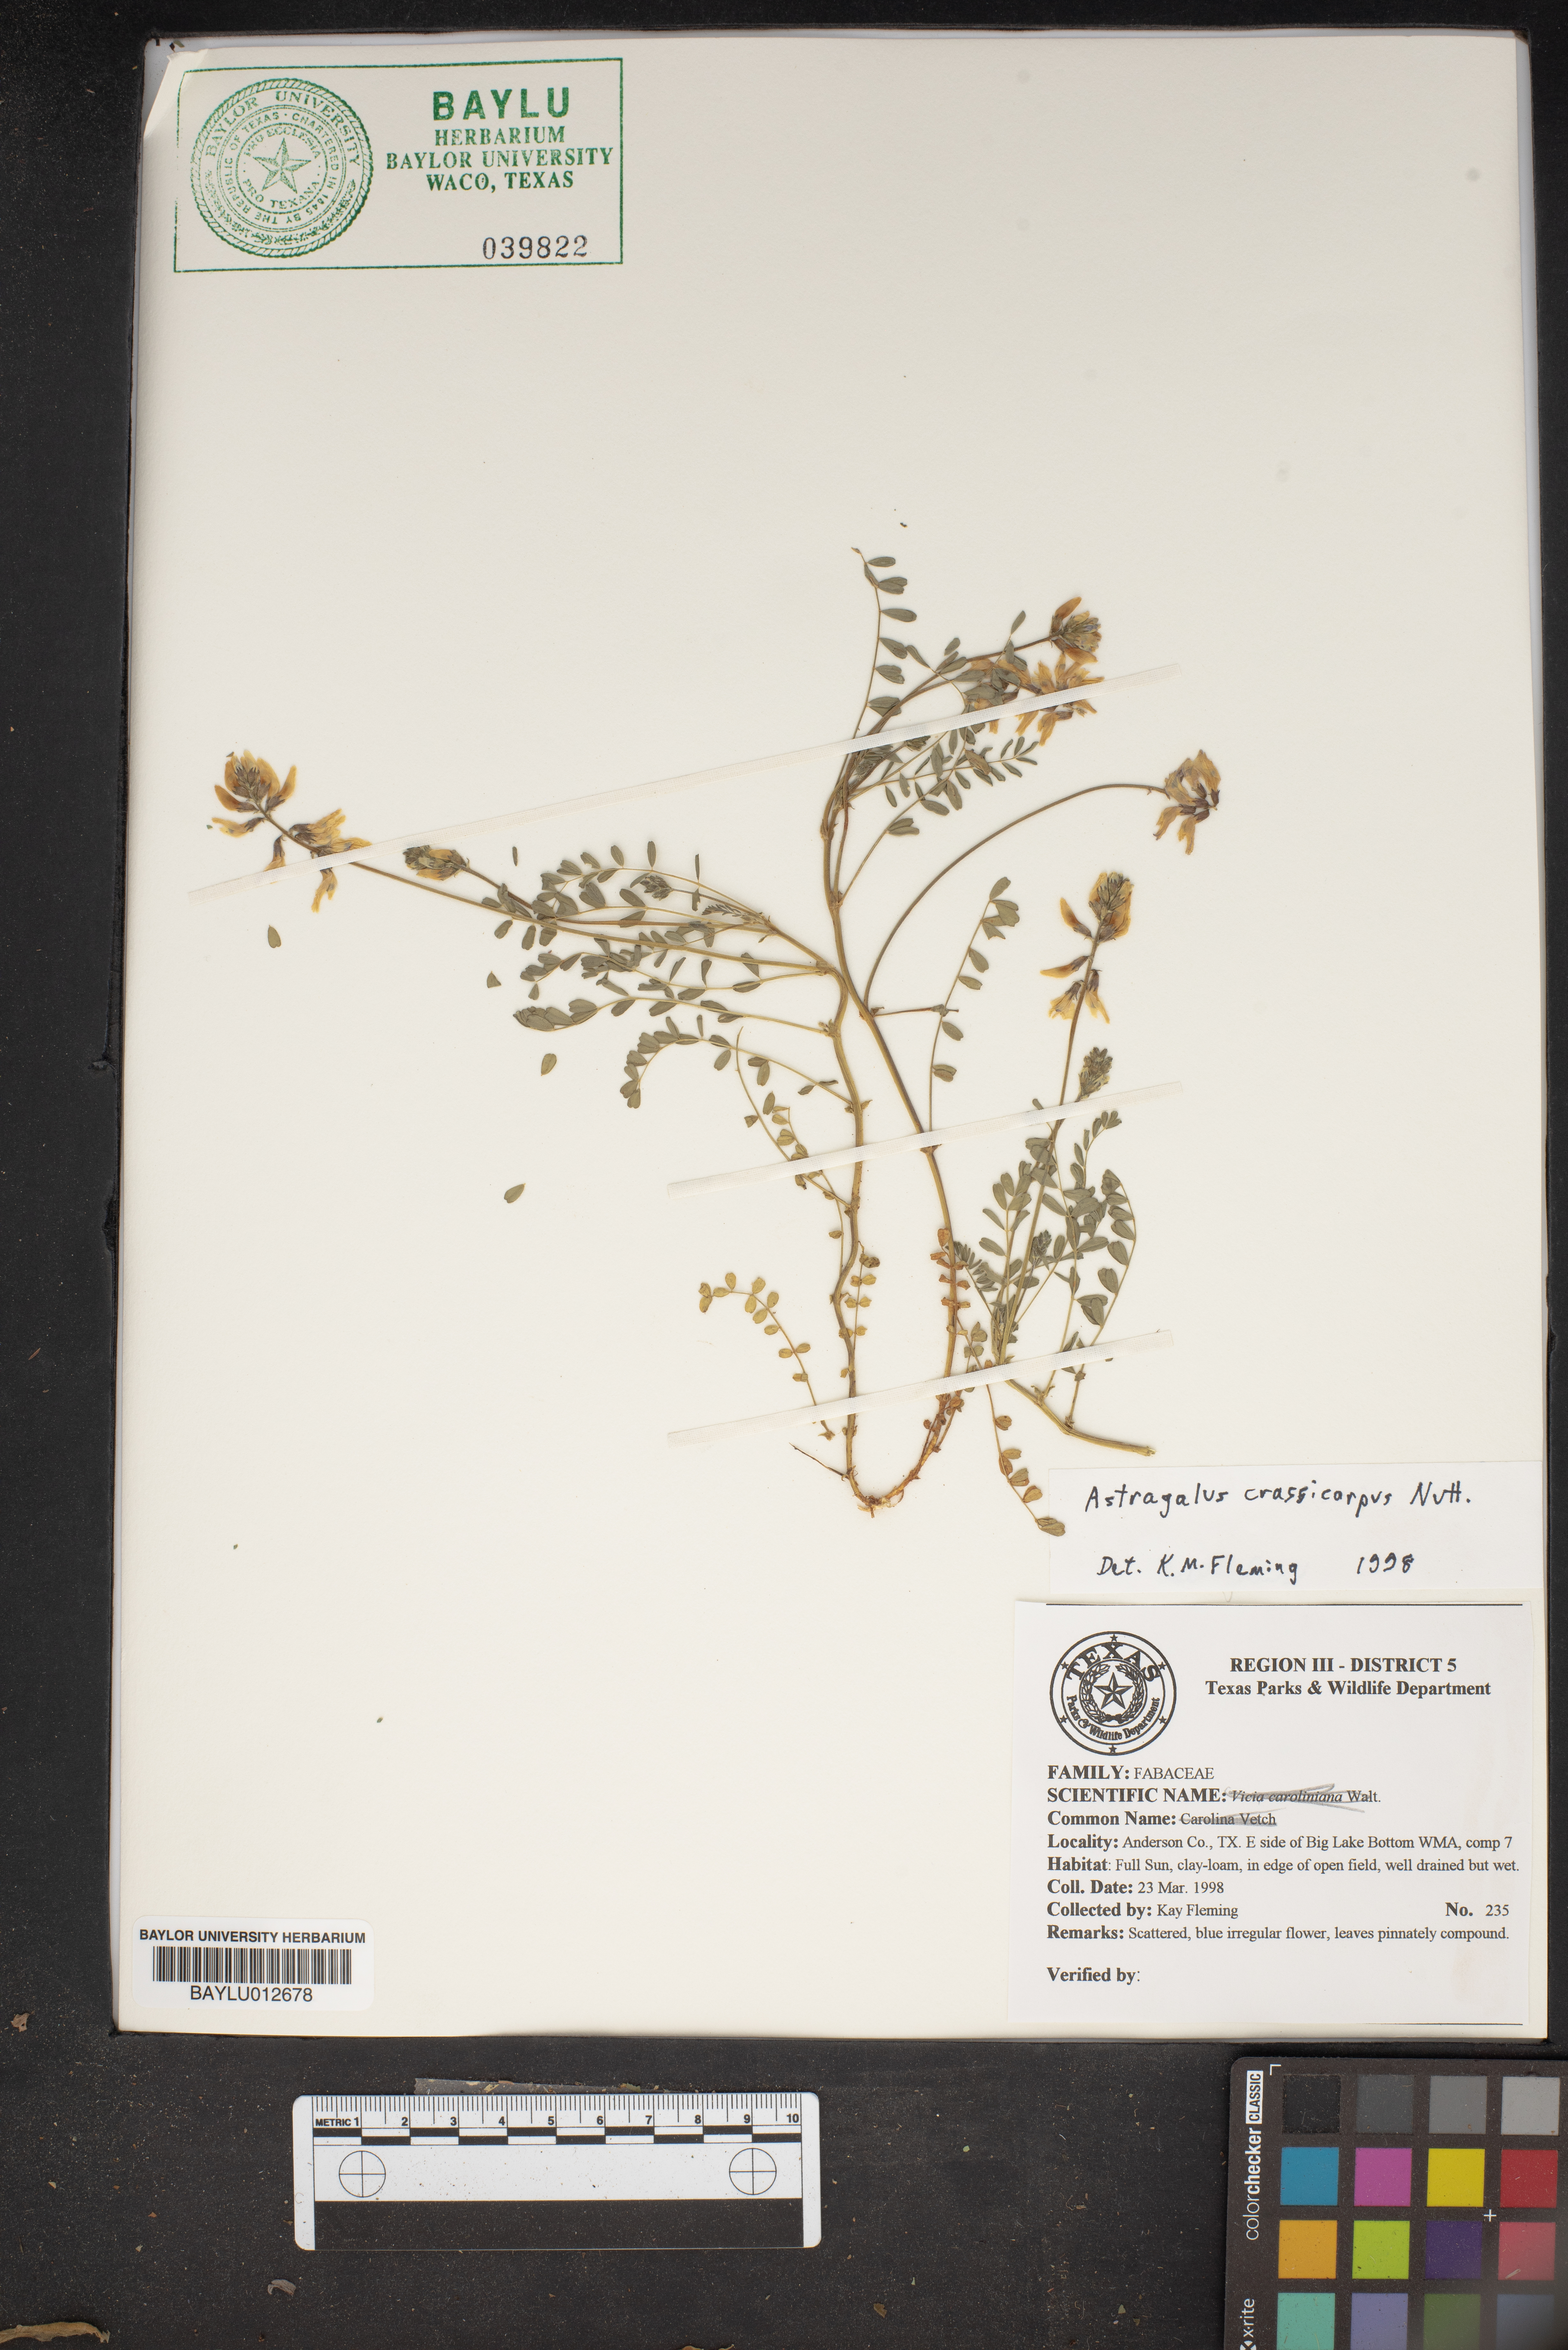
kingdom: Plantae
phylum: Tracheophyta
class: Magnoliopsida
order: Fabales
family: Fabaceae
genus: Astragalus
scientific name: Astragalus crassicarpus
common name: Ground-plum milk-vetch
